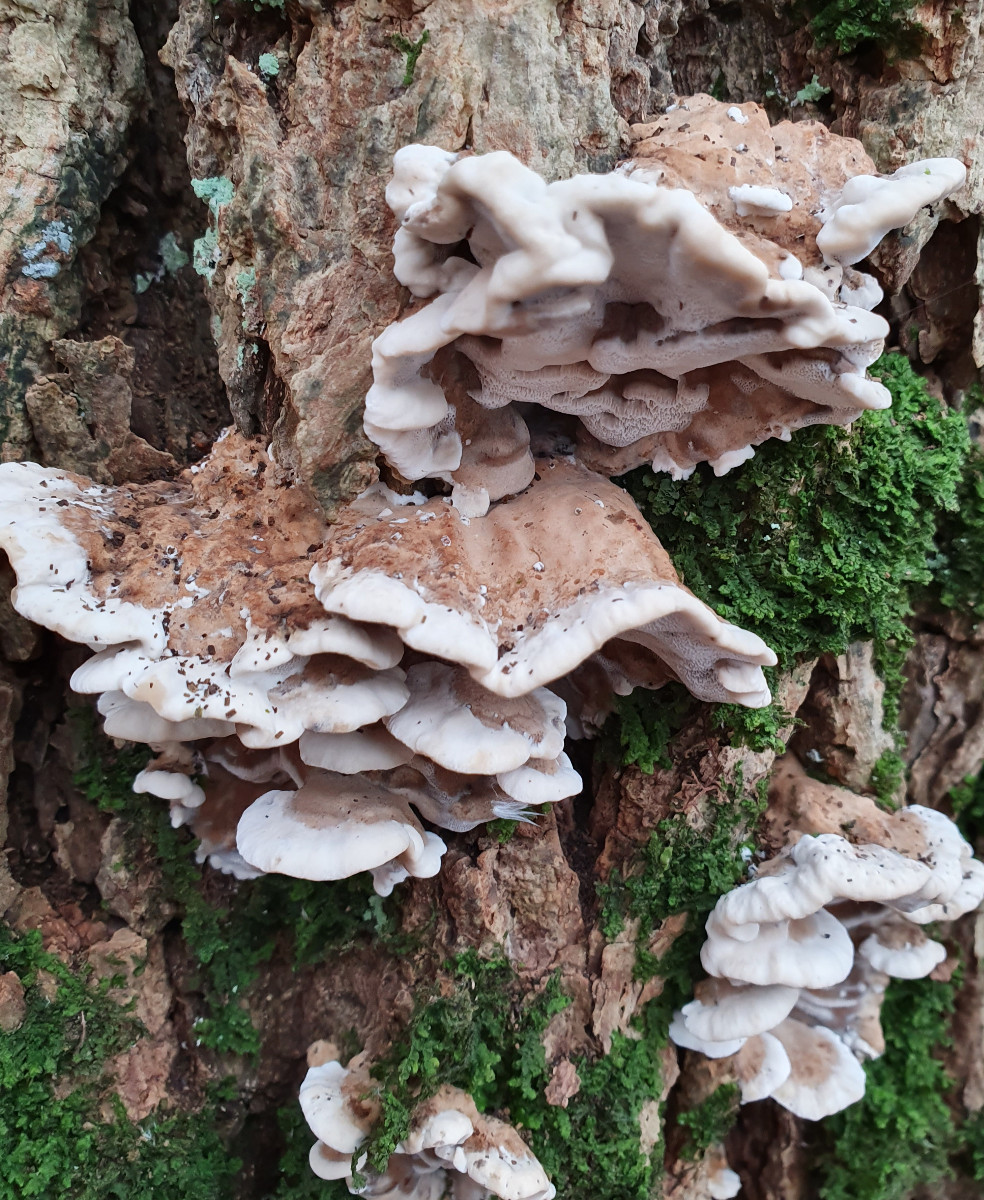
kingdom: Fungi
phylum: Basidiomycota
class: Agaricomycetes
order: Polyporales
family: Phanerochaetaceae
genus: Bjerkandera
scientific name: Bjerkandera adusta
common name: sveden sodporesvamp
